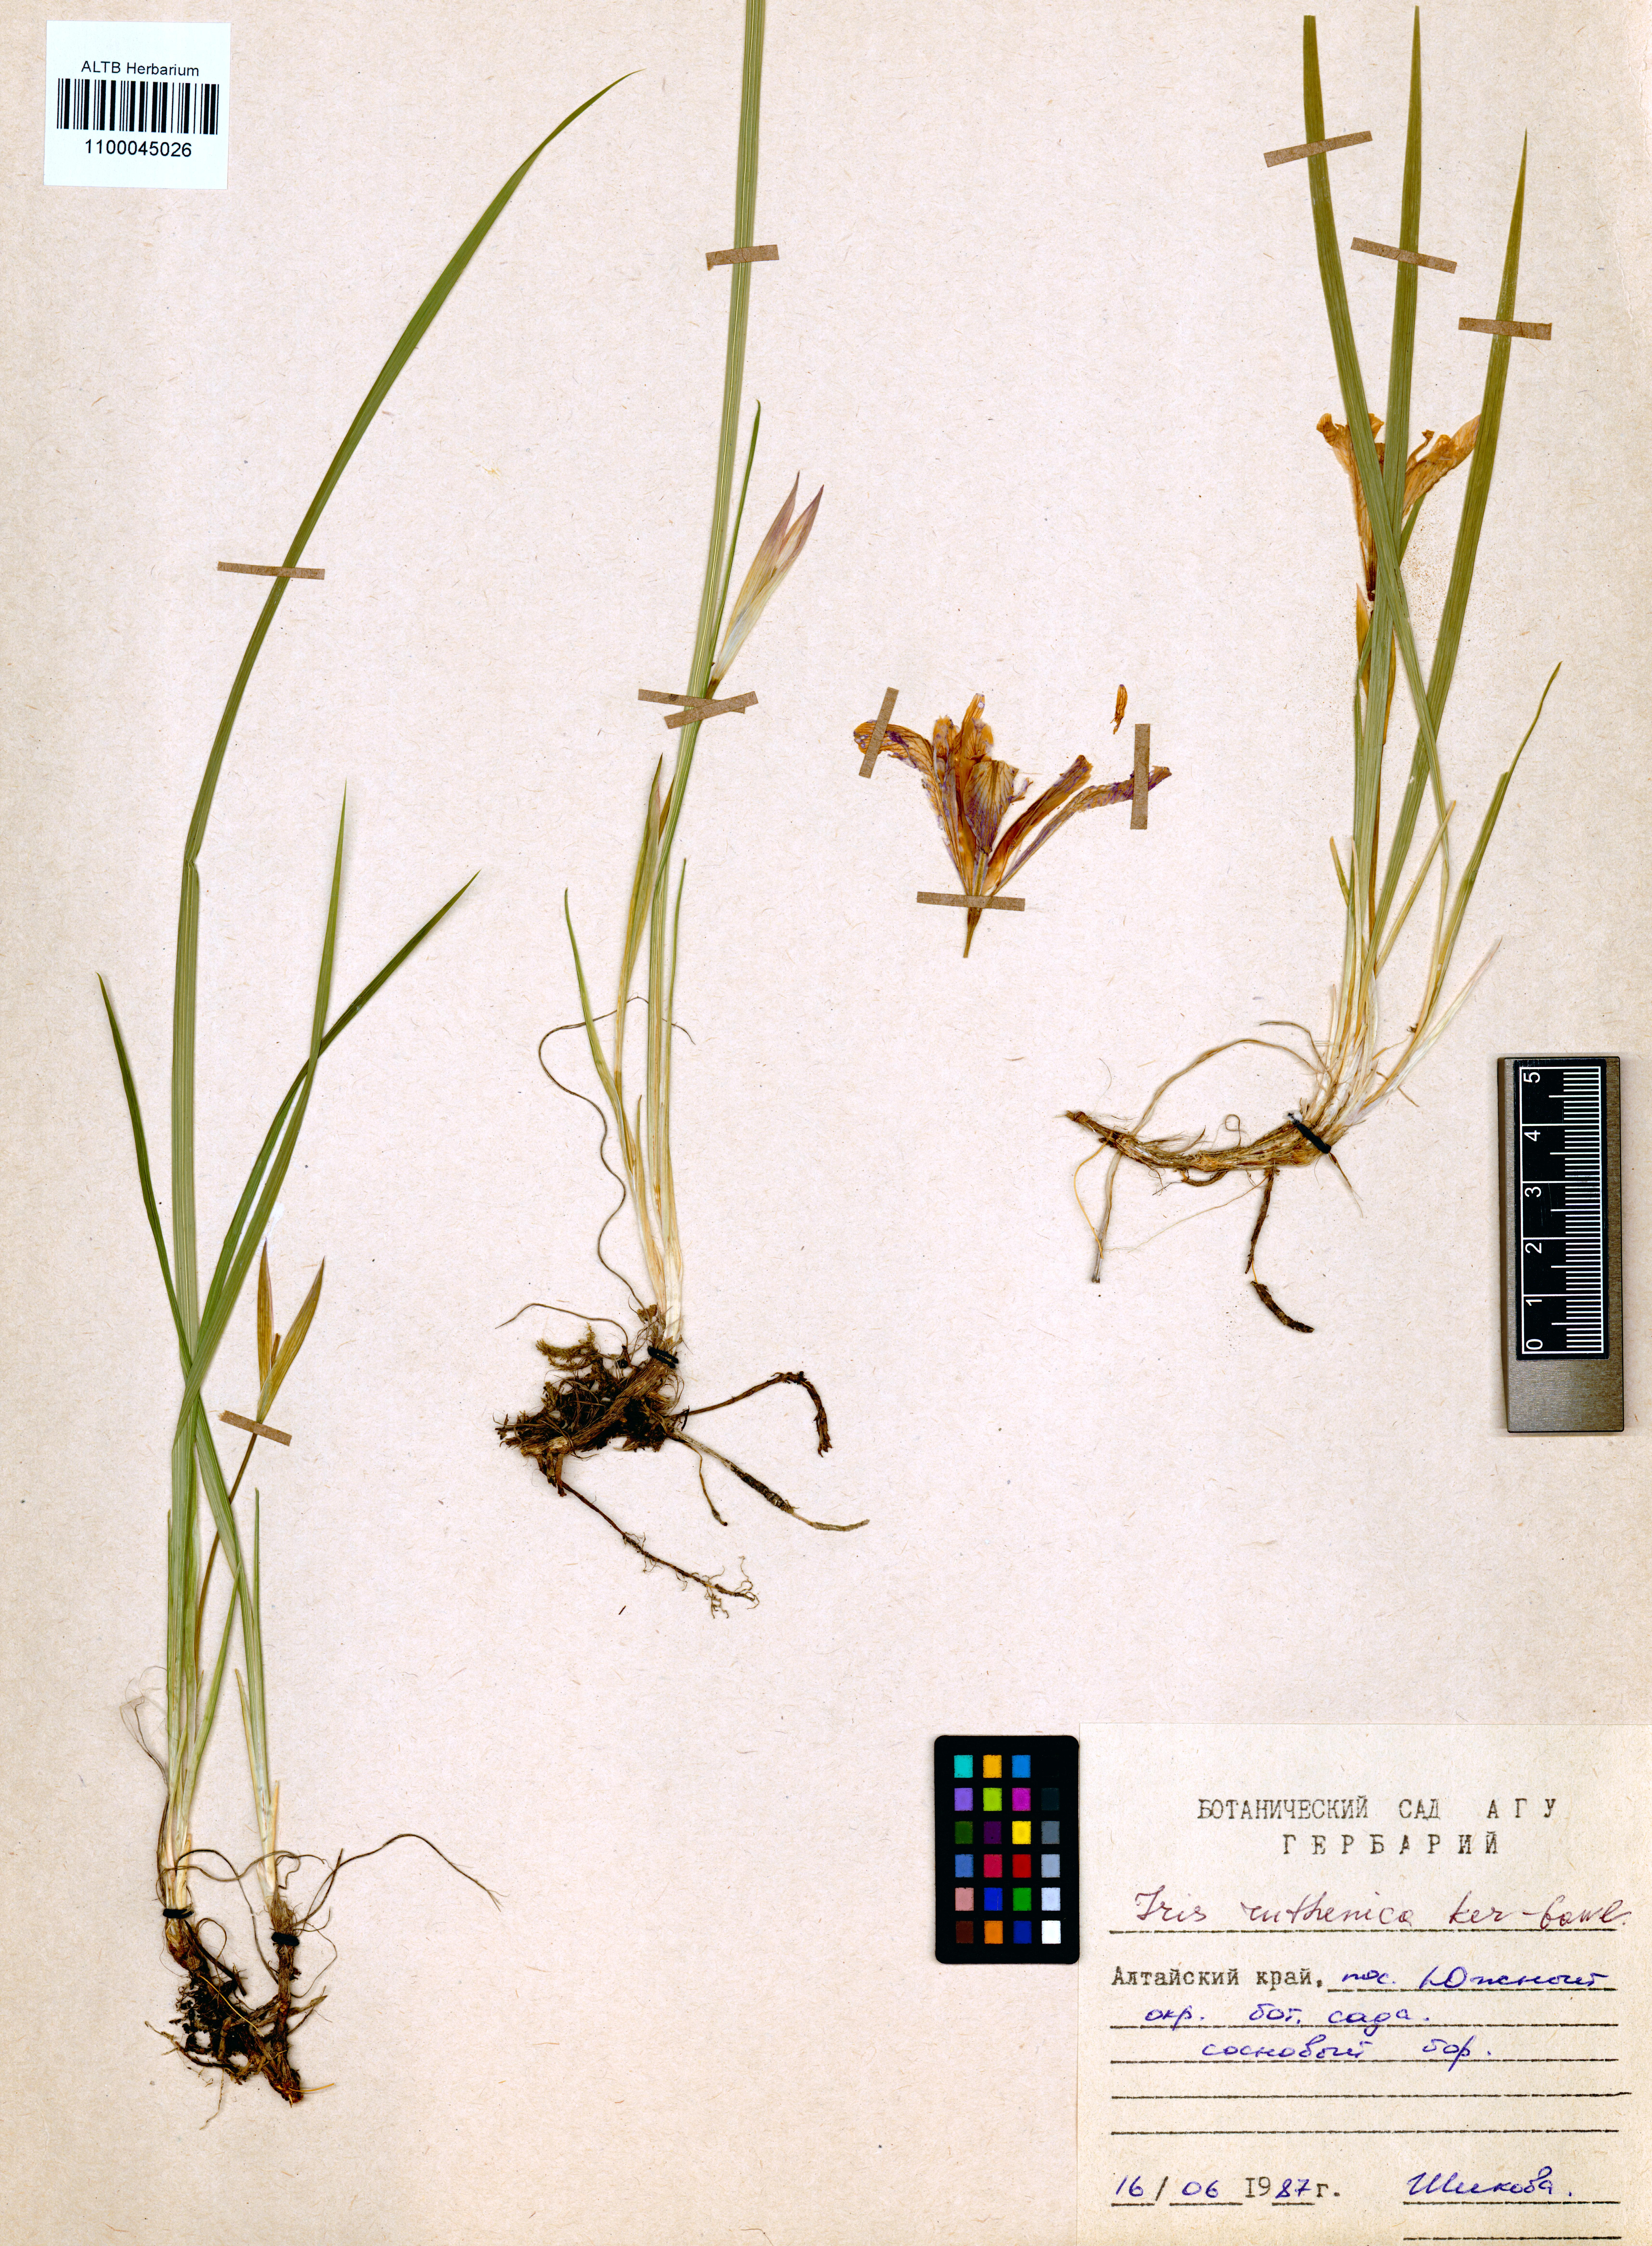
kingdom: Plantae
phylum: Tracheophyta
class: Liliopsida
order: Asparagales
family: Iridaceae
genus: Iris
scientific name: Iris ruthenica
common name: Purple-bract iris
